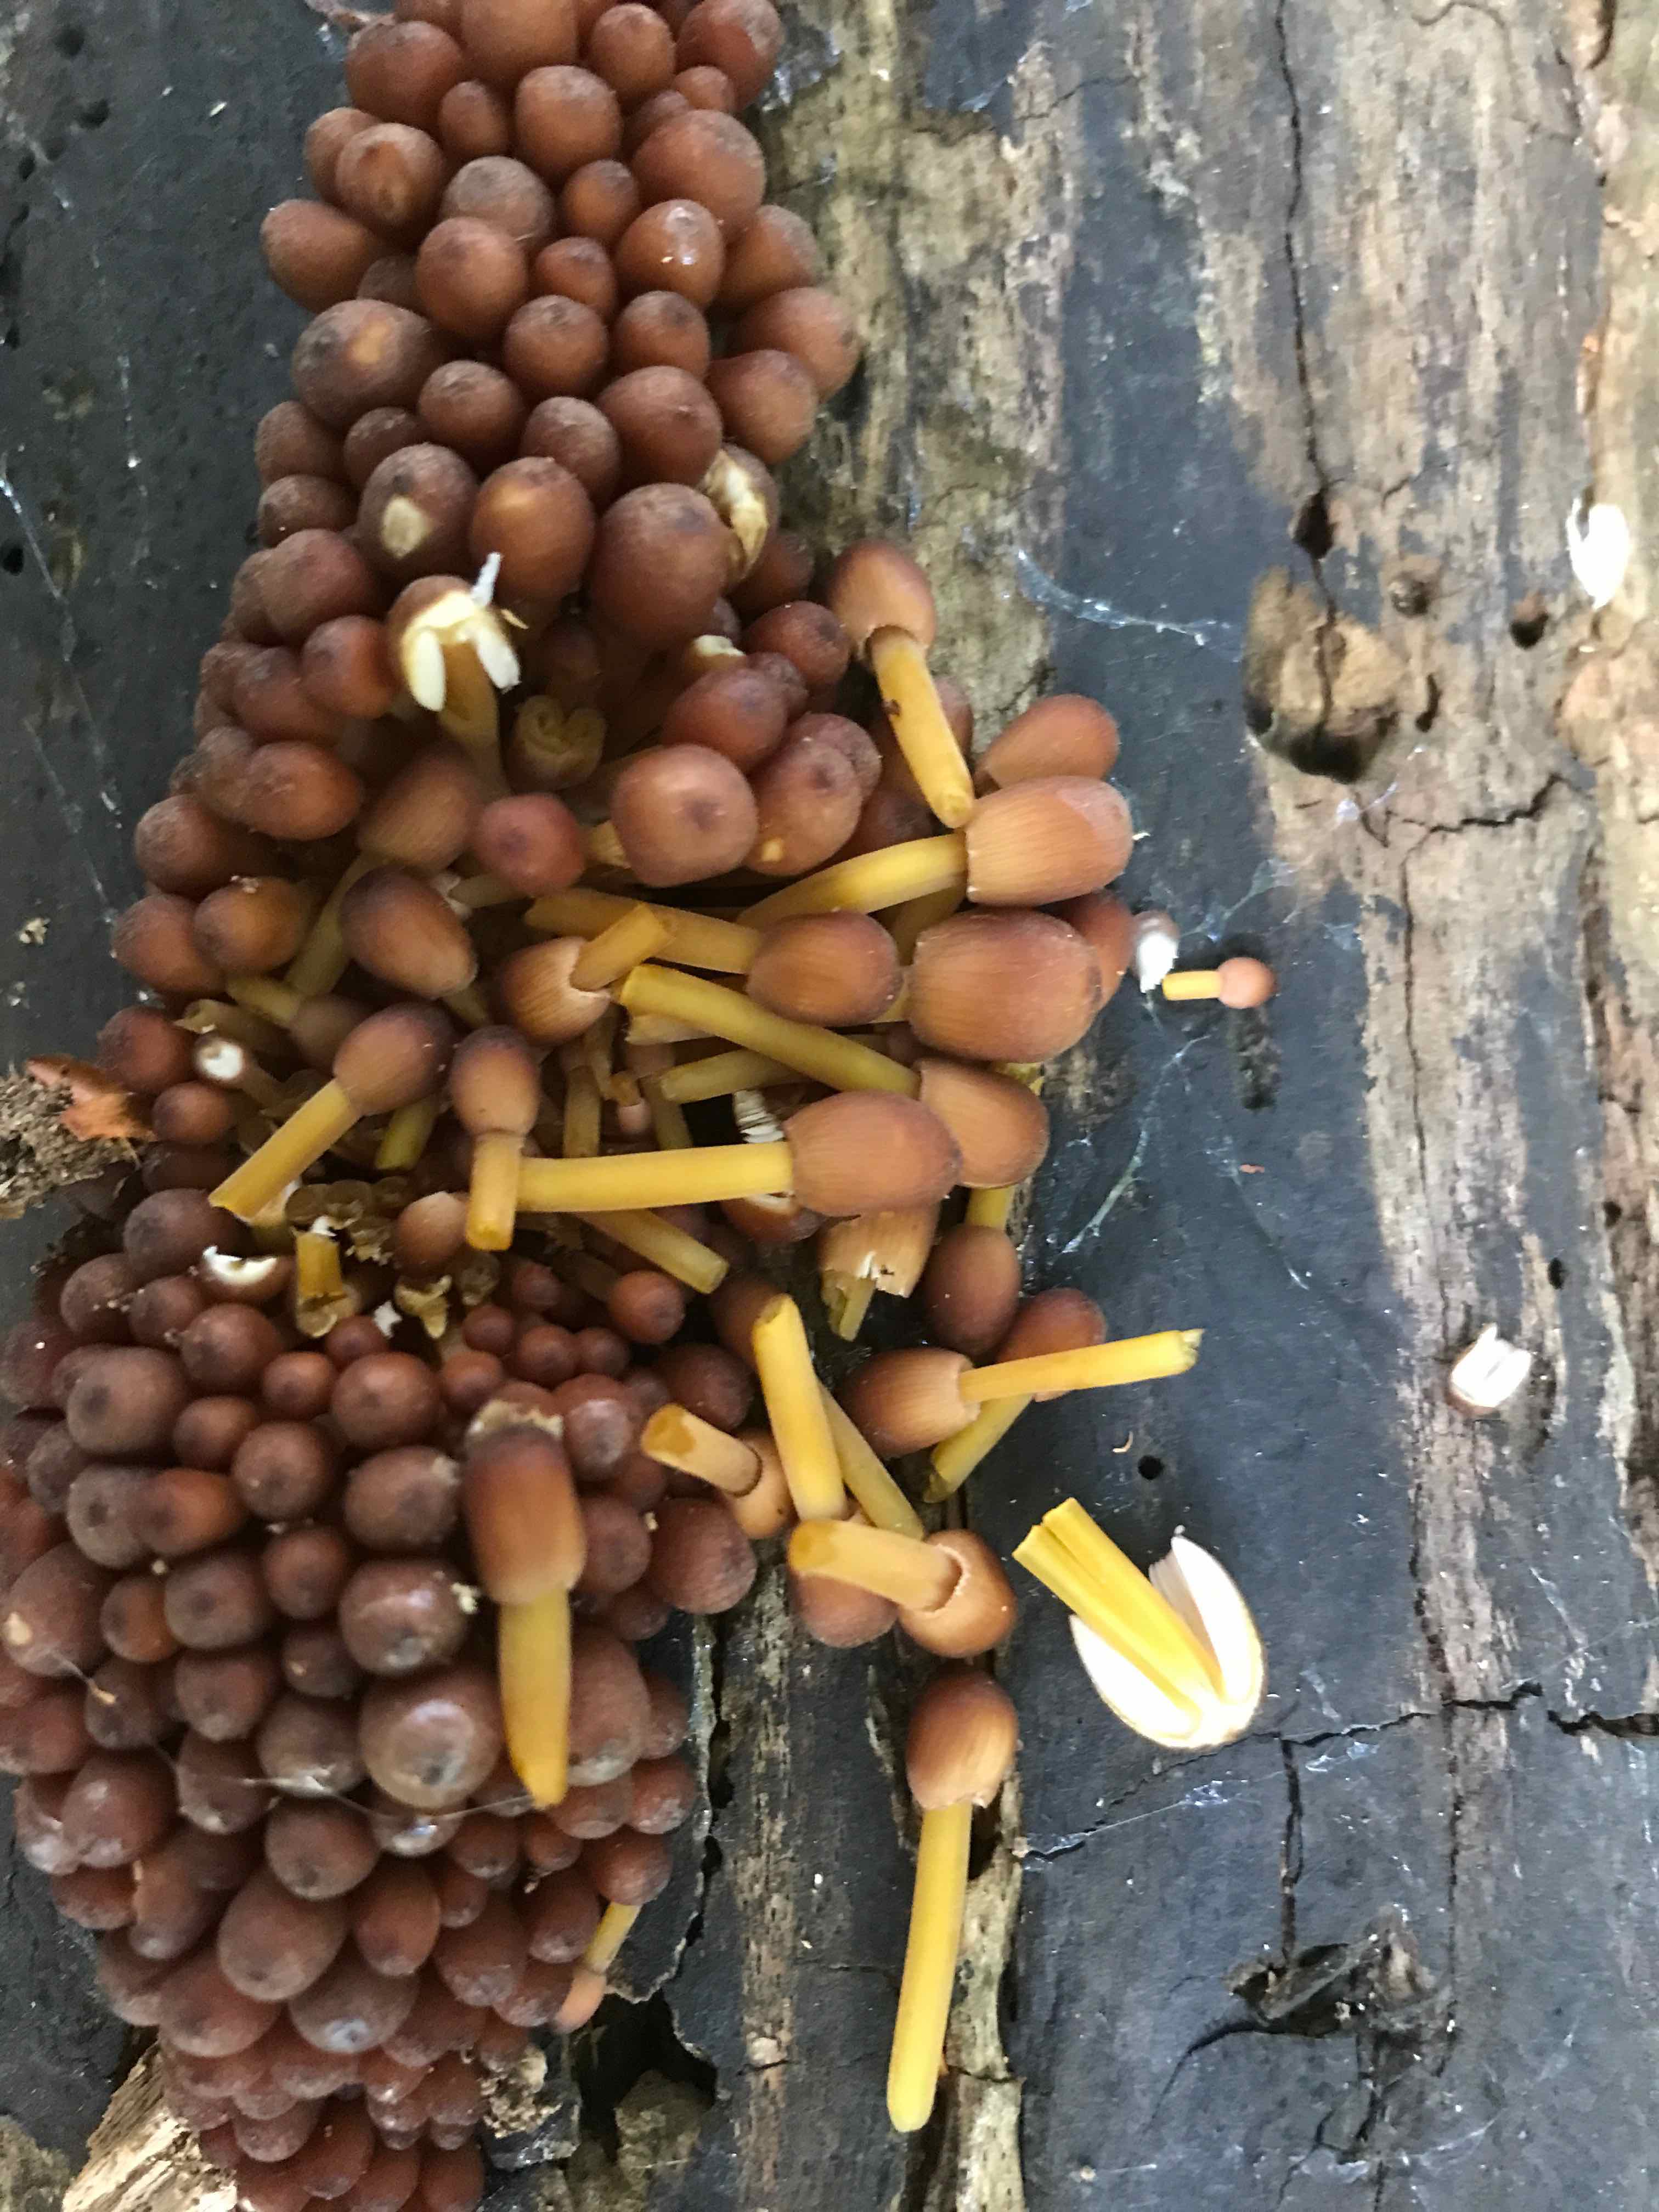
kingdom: Fungi
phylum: Basidiomycota
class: Agaricomycetes
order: Agaricales
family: Mycenaceae
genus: Mycena
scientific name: Mycena renati
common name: smuk huesvamp
